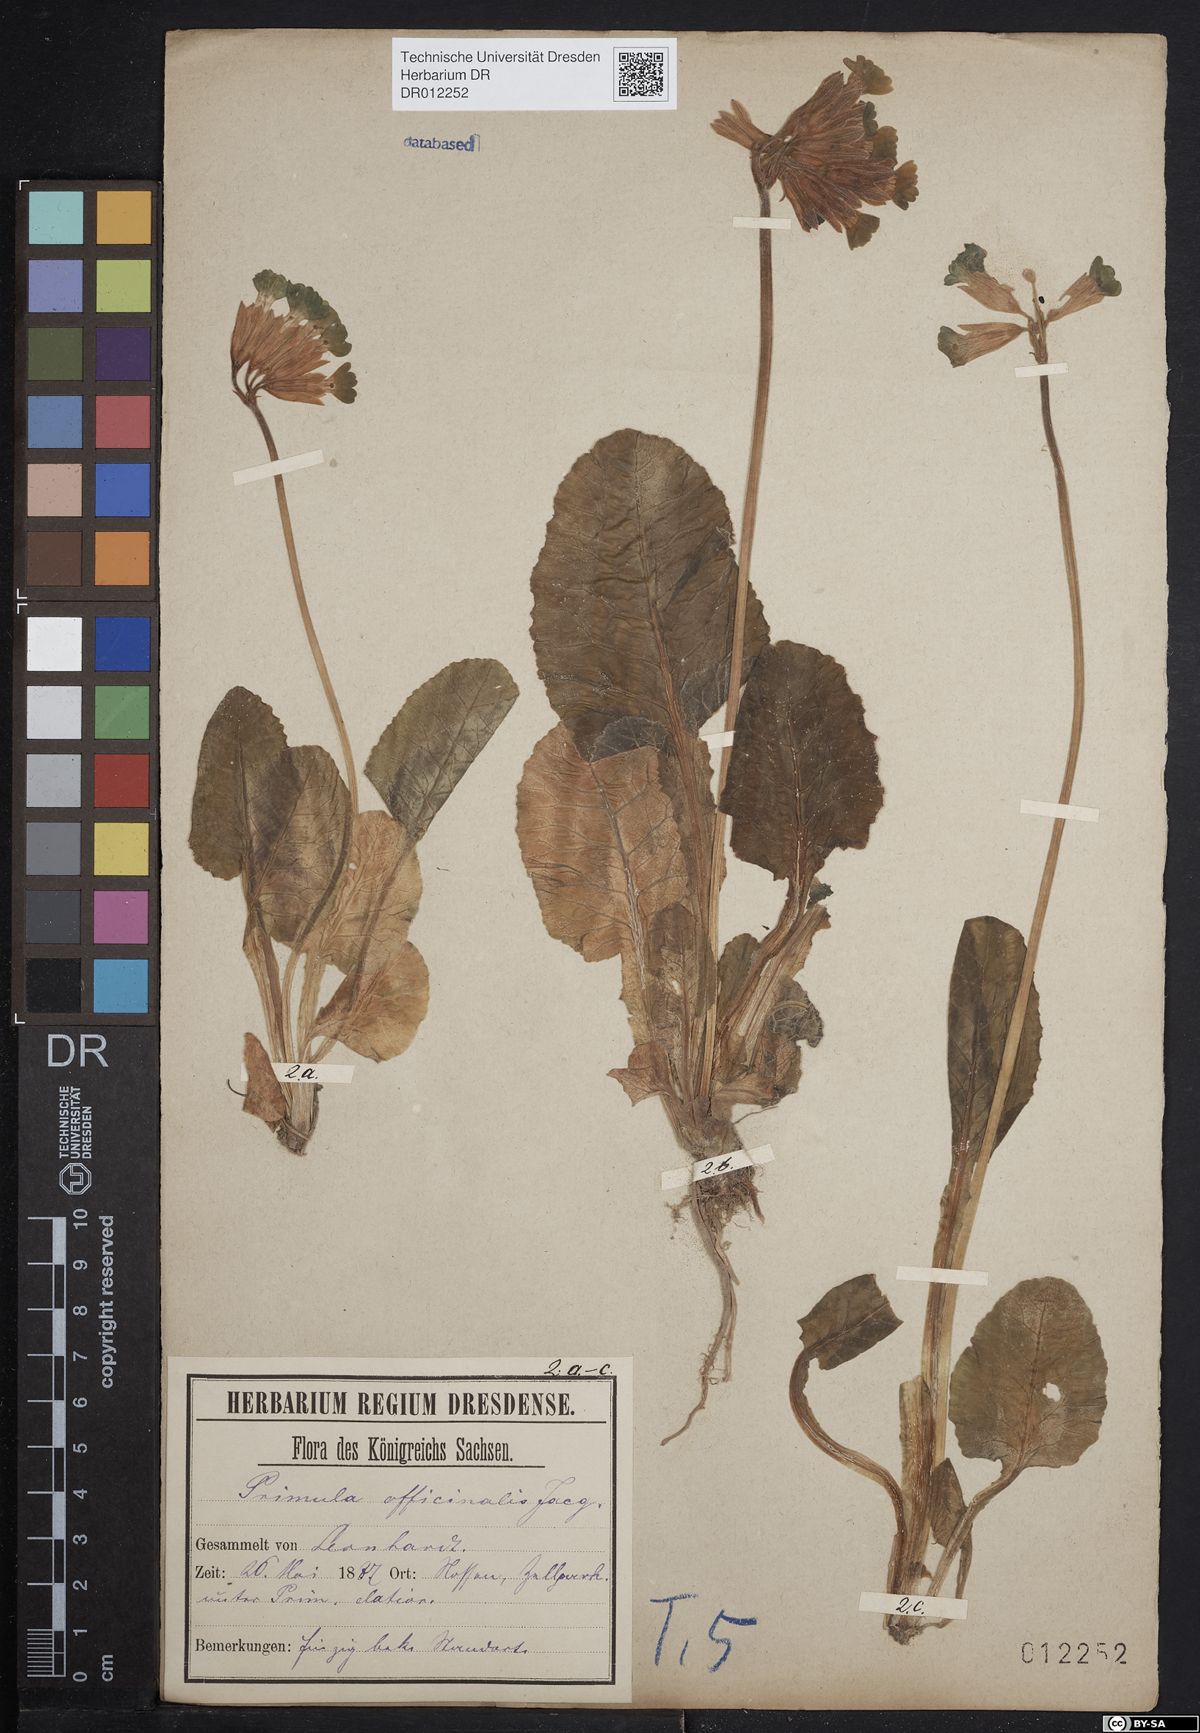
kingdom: Plantae
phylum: Tracheophyta
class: Magnoliopsida
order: Ericales
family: Primulaceae
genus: Primula
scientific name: Primula veris
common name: Cowslip
